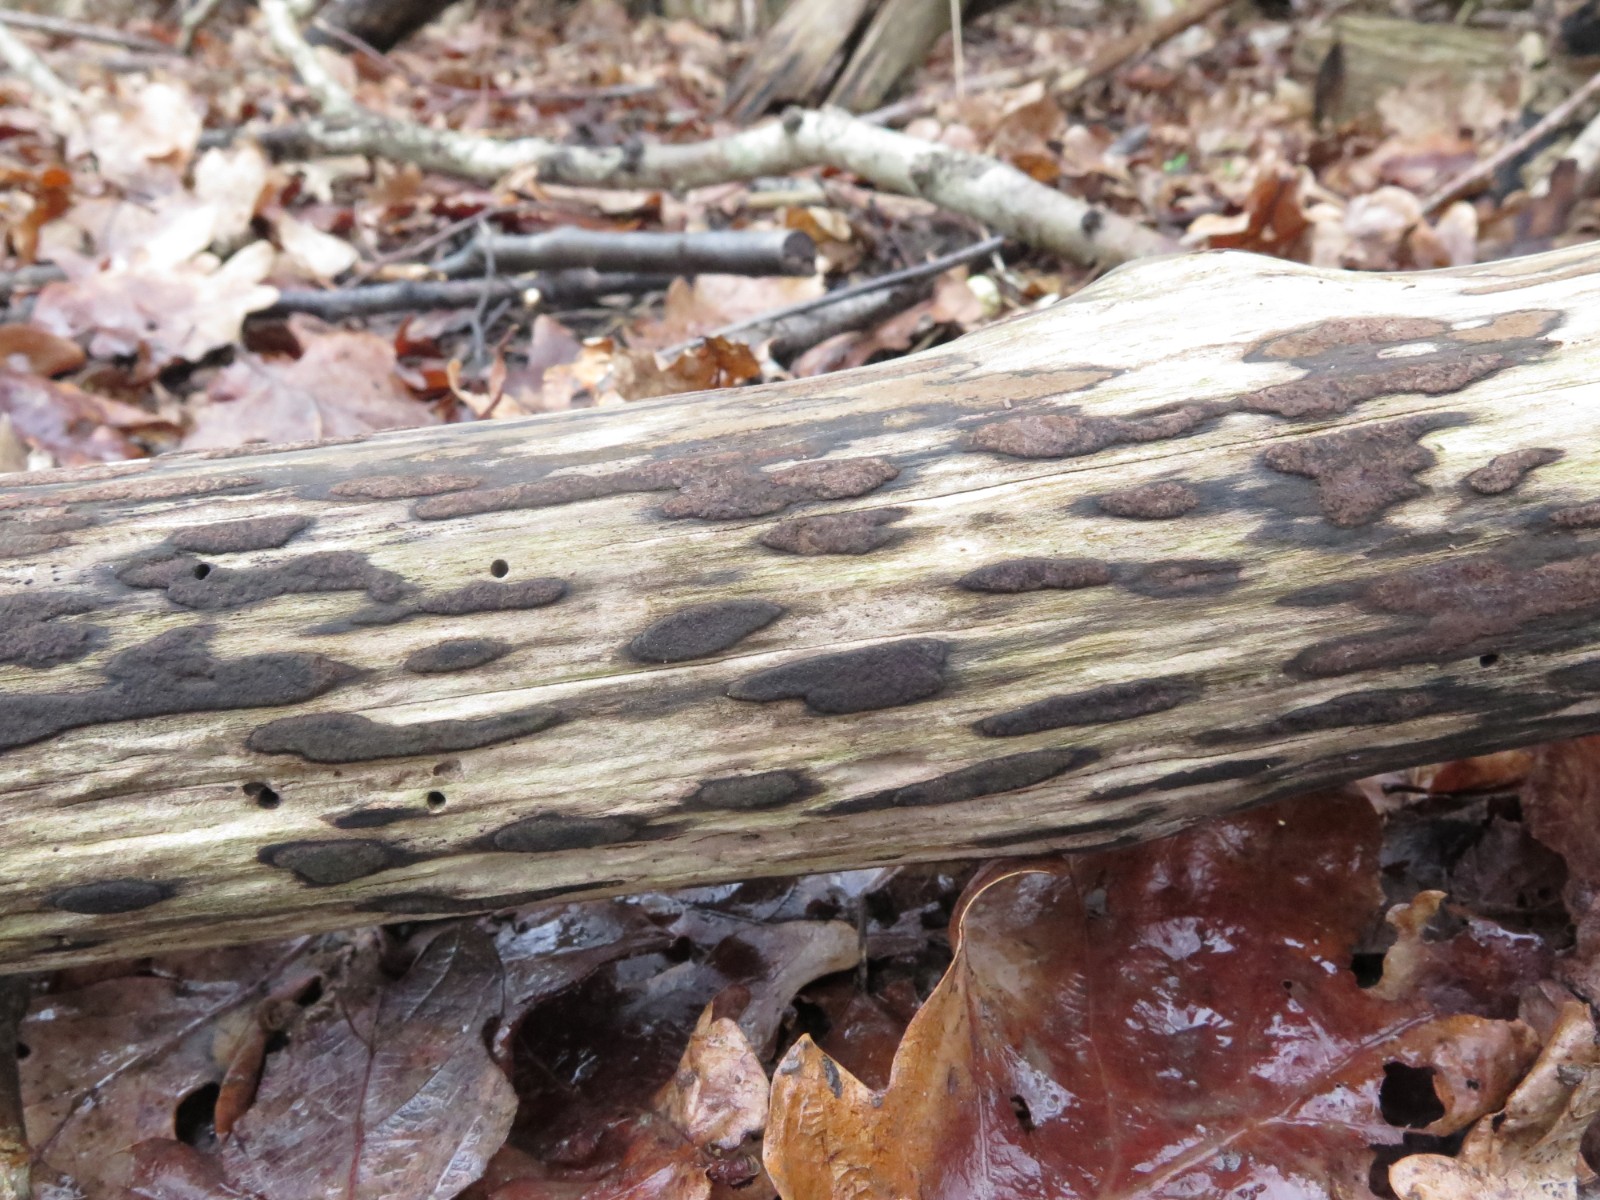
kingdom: Fungi
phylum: Ascomycota
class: Sordariomycetes
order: Xylariales
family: Hypoxylaceae
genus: Hypoxylon
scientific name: Hypoxylon petriniae
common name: nedsænket kulbær
